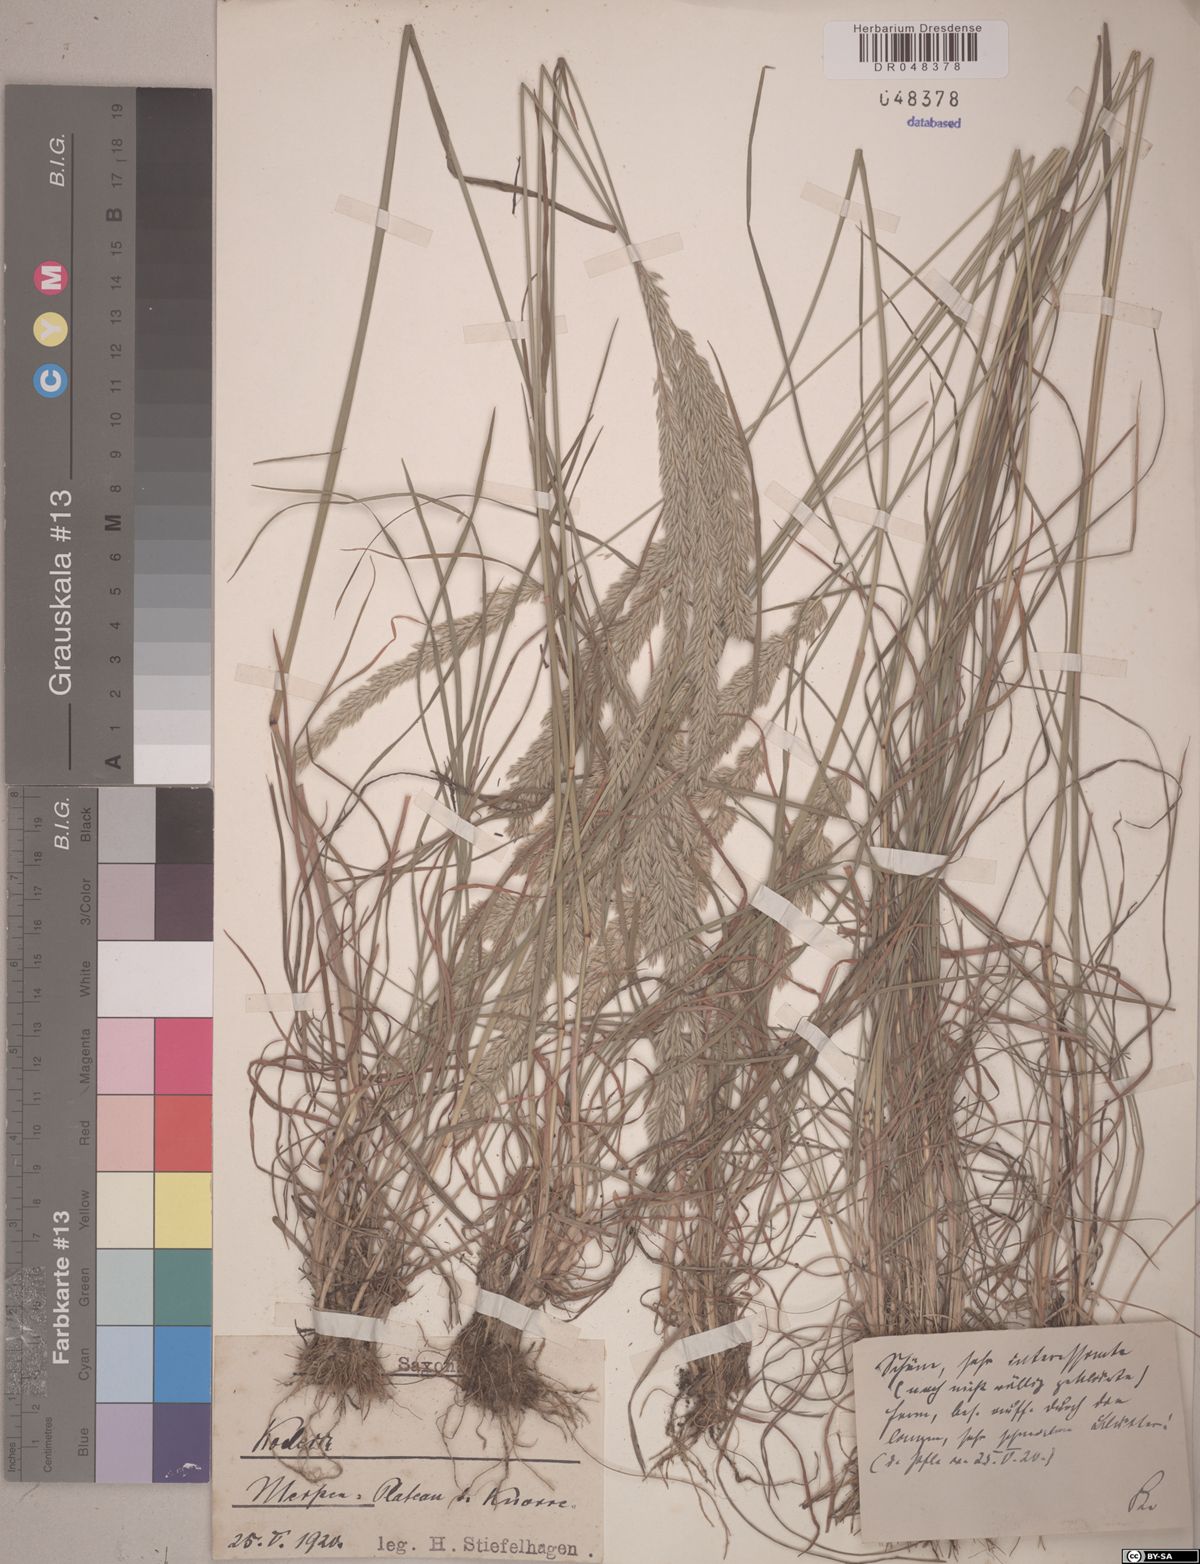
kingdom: Plantae
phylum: Tracheophyta
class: Liliopsida
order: Poales
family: Poaceae
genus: Koeleria
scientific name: Koeleria
